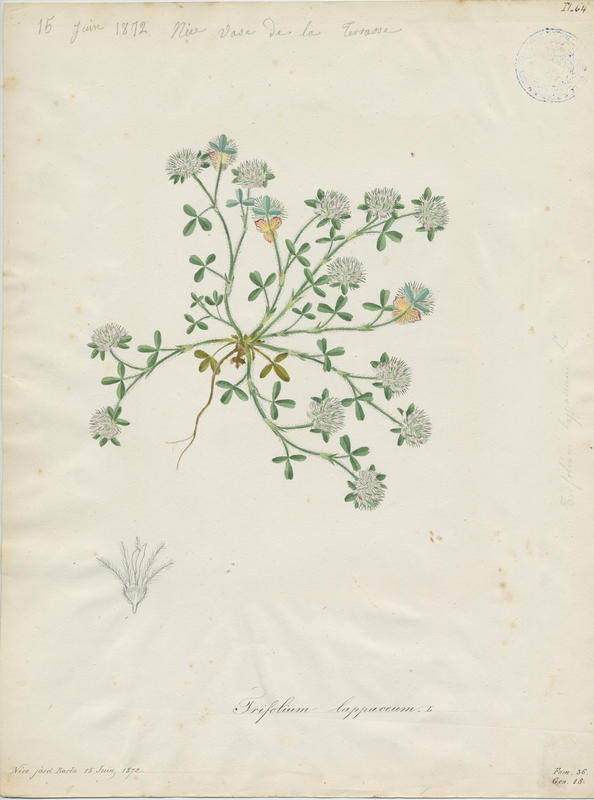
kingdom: Plantae
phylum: Tracheophyta
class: Magnoliopsida
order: Fabales
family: Fabaceae
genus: Trifolium
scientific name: Trifolium lappaceum
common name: Bur clover
